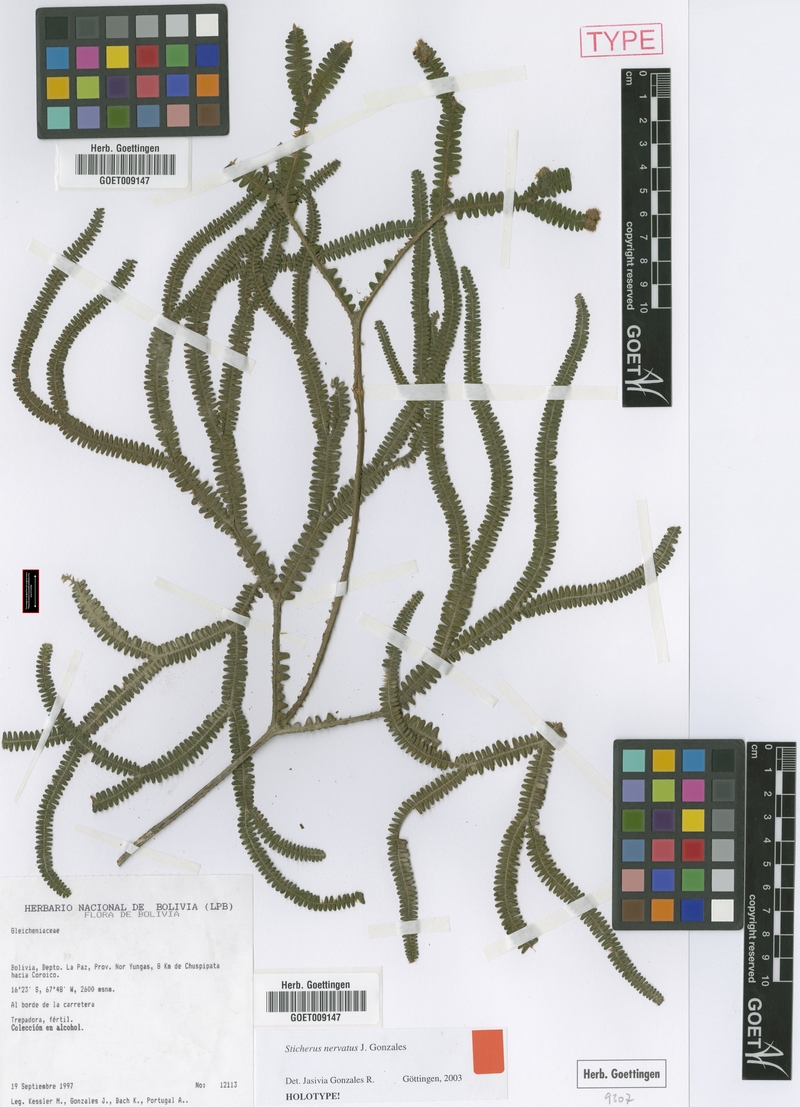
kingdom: Plantae
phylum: Tracheophyta
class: Polypodiopsida
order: Gleicheniales
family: Gleicheniaceae
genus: Sticherus
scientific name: Sticherus nervatus
